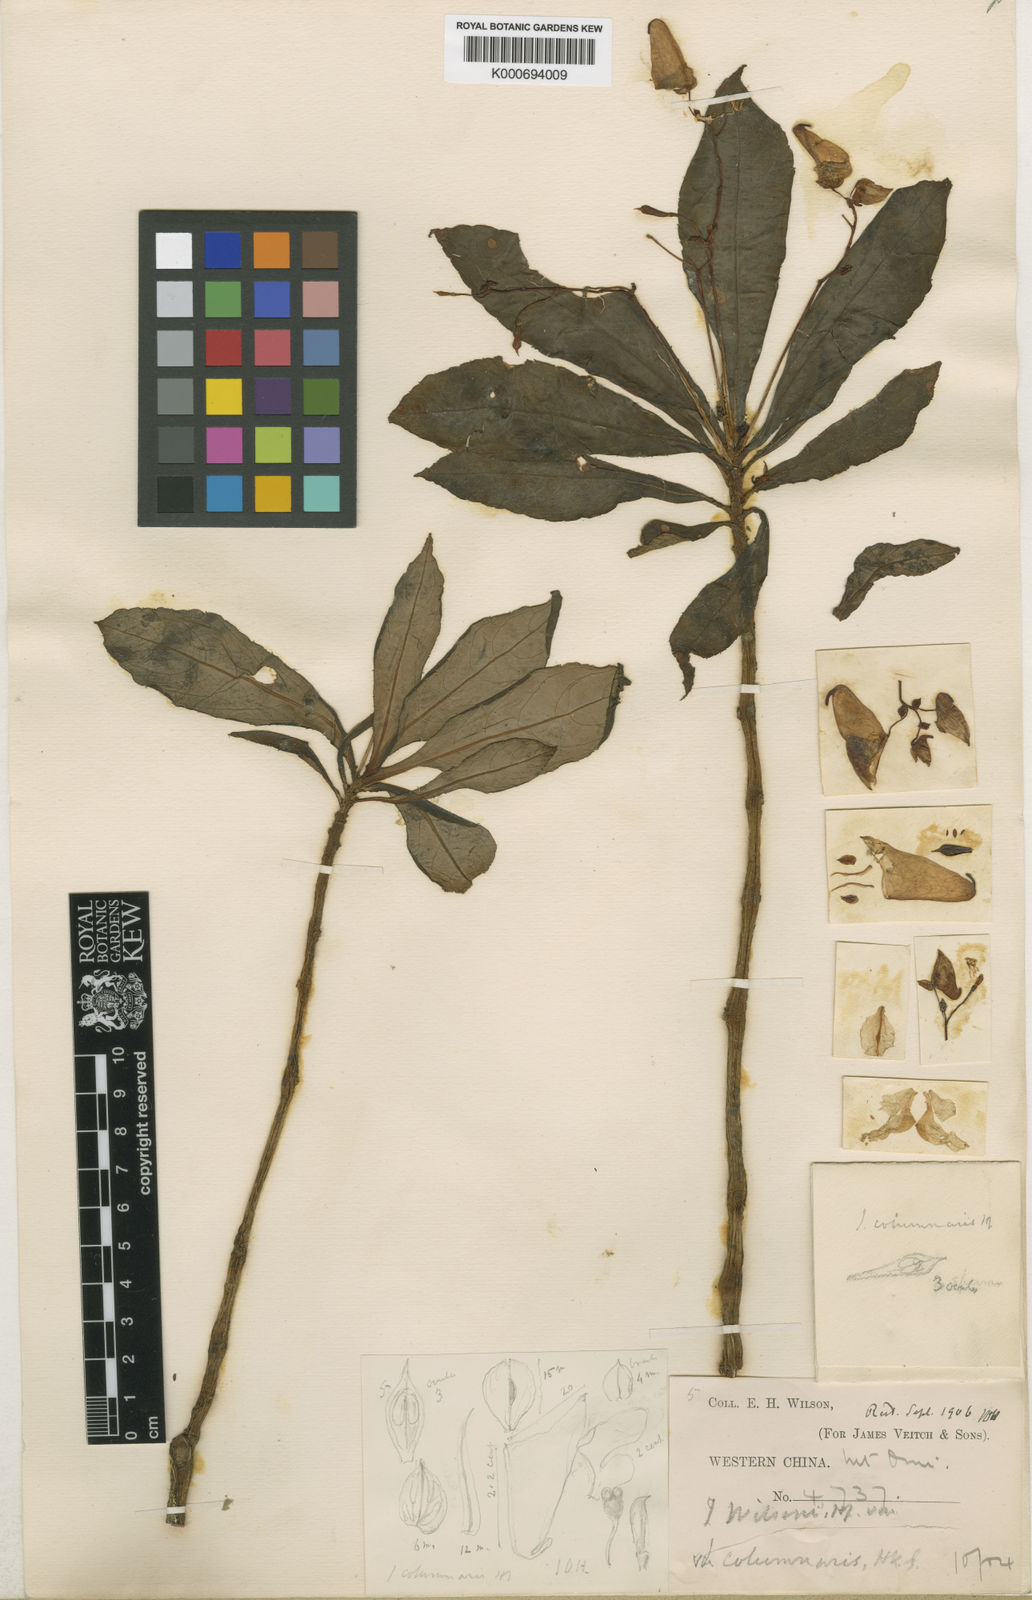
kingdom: Plantae
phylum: Tracheophyta
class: Magnoliopsida
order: Ericales
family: Balsaminaceae
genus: Impatiens
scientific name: Impatiens wilsonii
